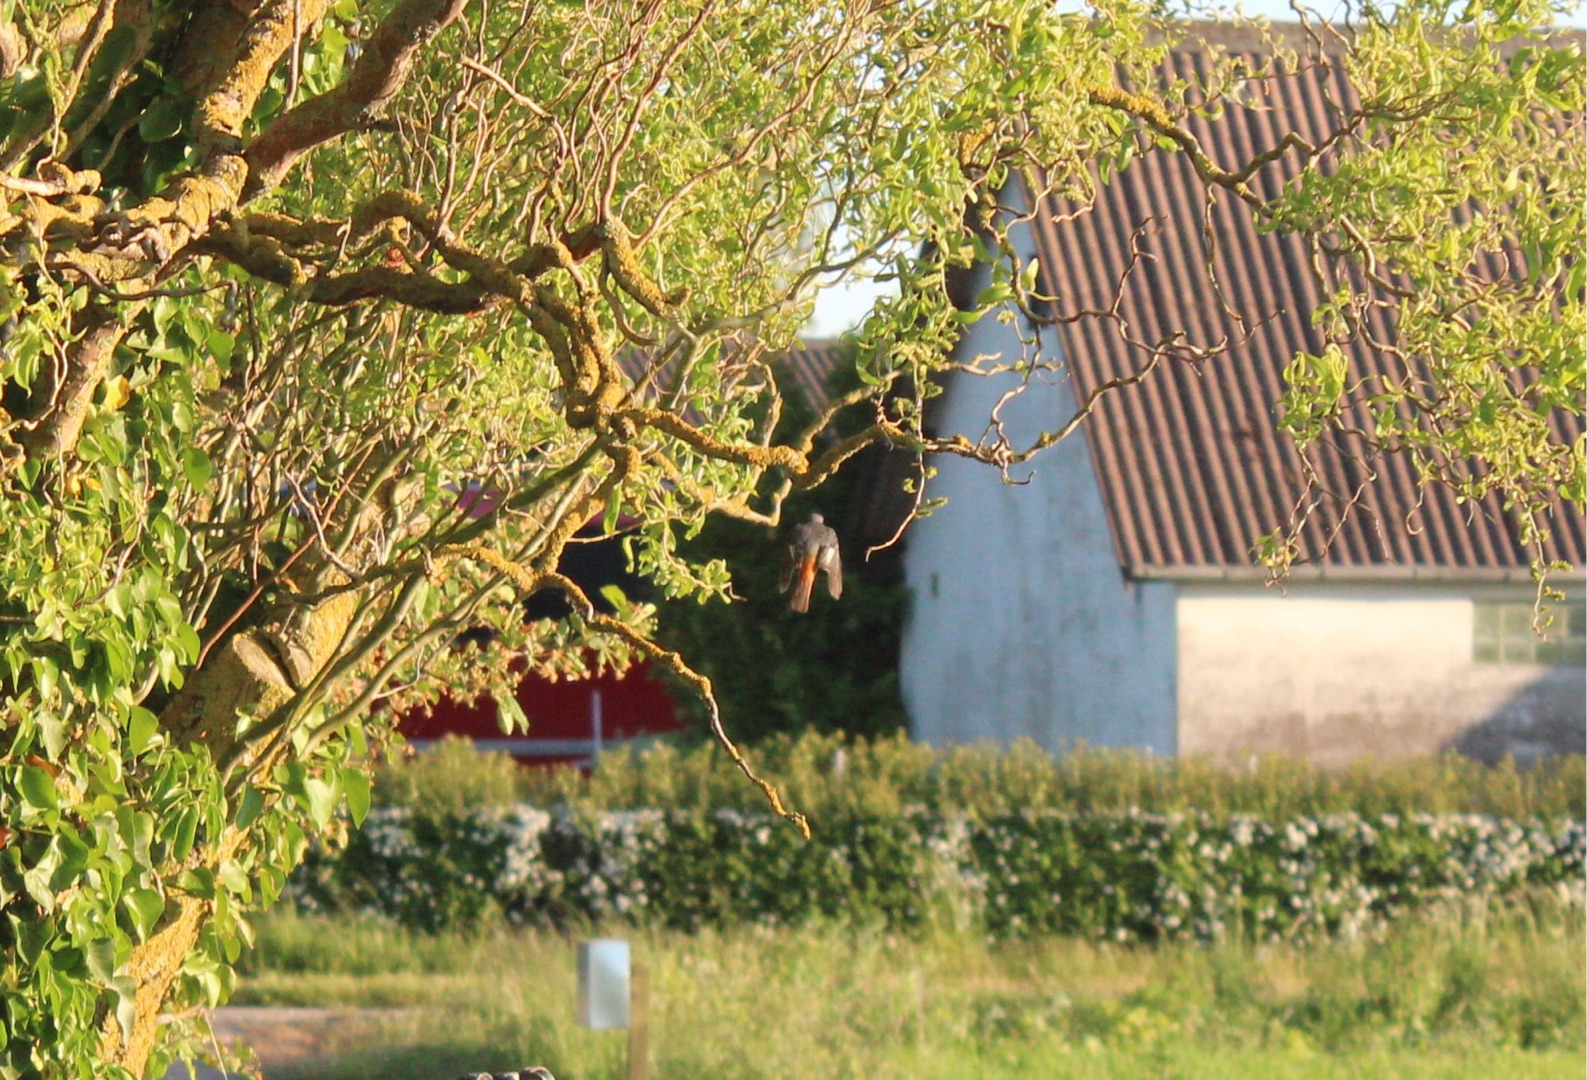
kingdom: Animalia
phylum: Chordata
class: Aves
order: Passeriformes
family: Muscicapidae
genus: Phoenicurus
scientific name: Phoenicurus ochruros
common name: Husrødstjert
